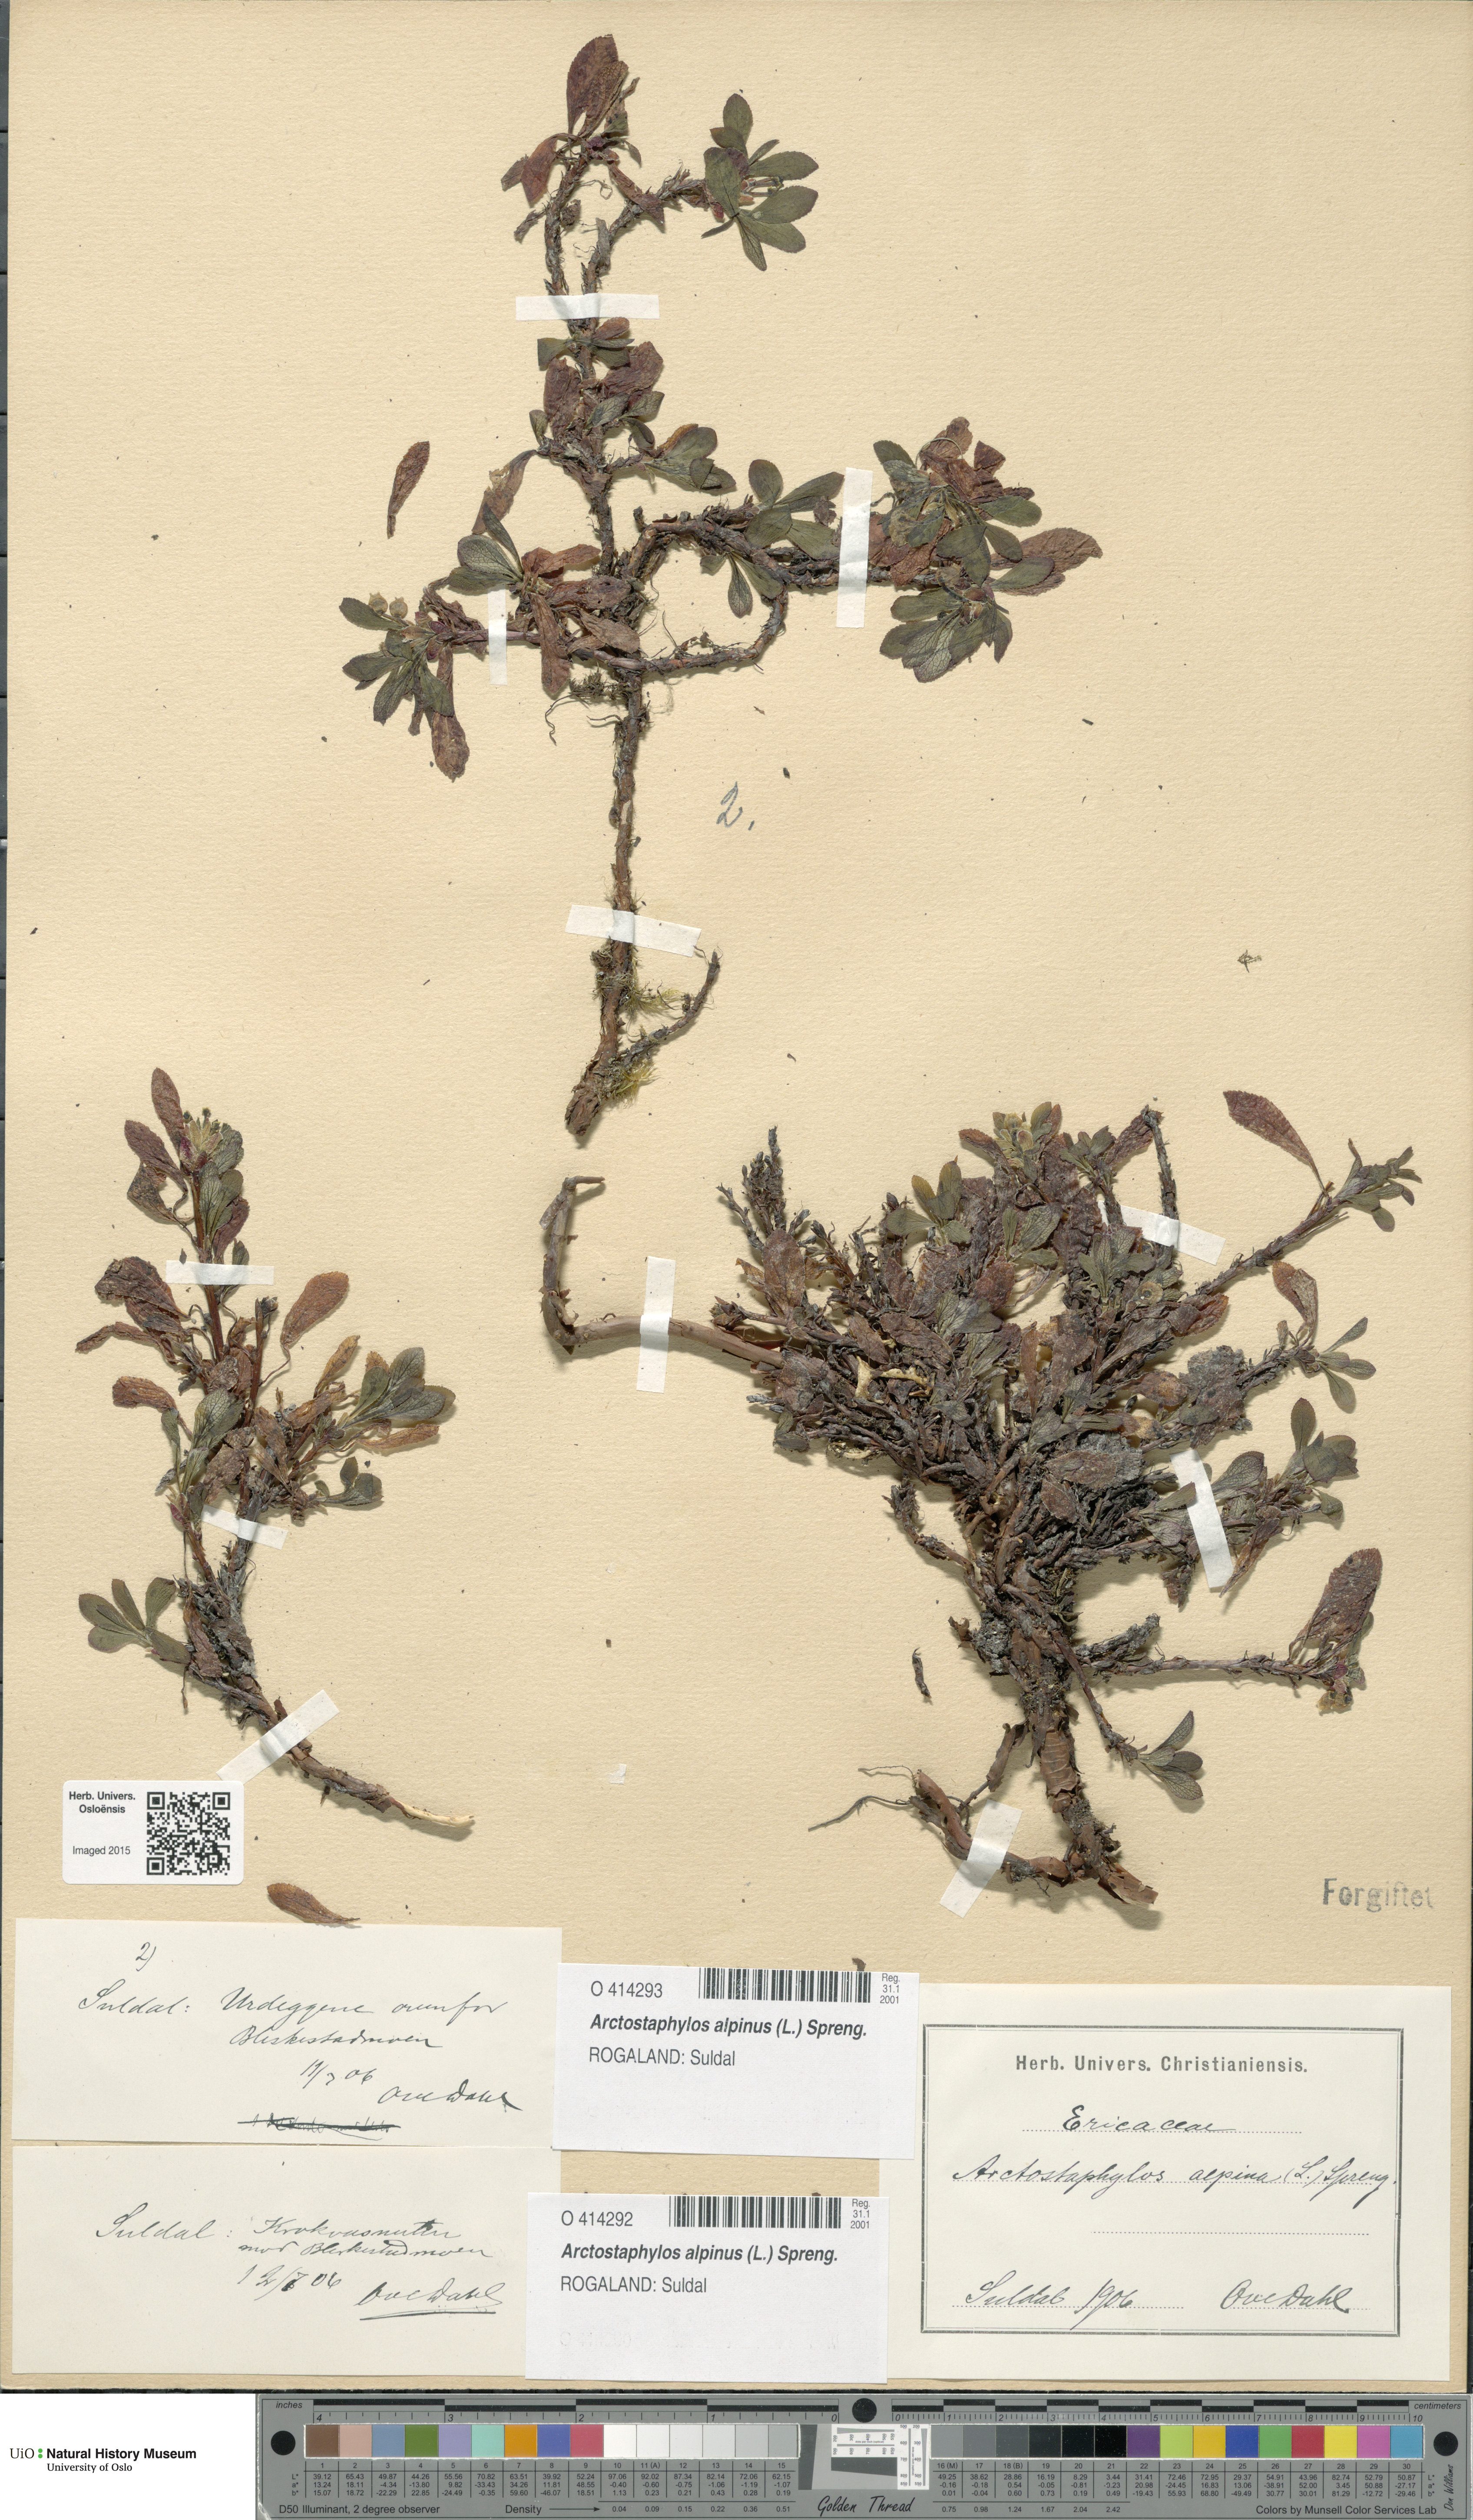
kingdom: Plantae
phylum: Tracheophyta
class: Magnoliopsida
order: Ericales
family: Ericaceae
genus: Arctostaphylos
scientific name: Arctostaphylos alpinus
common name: Alpine bearberry
